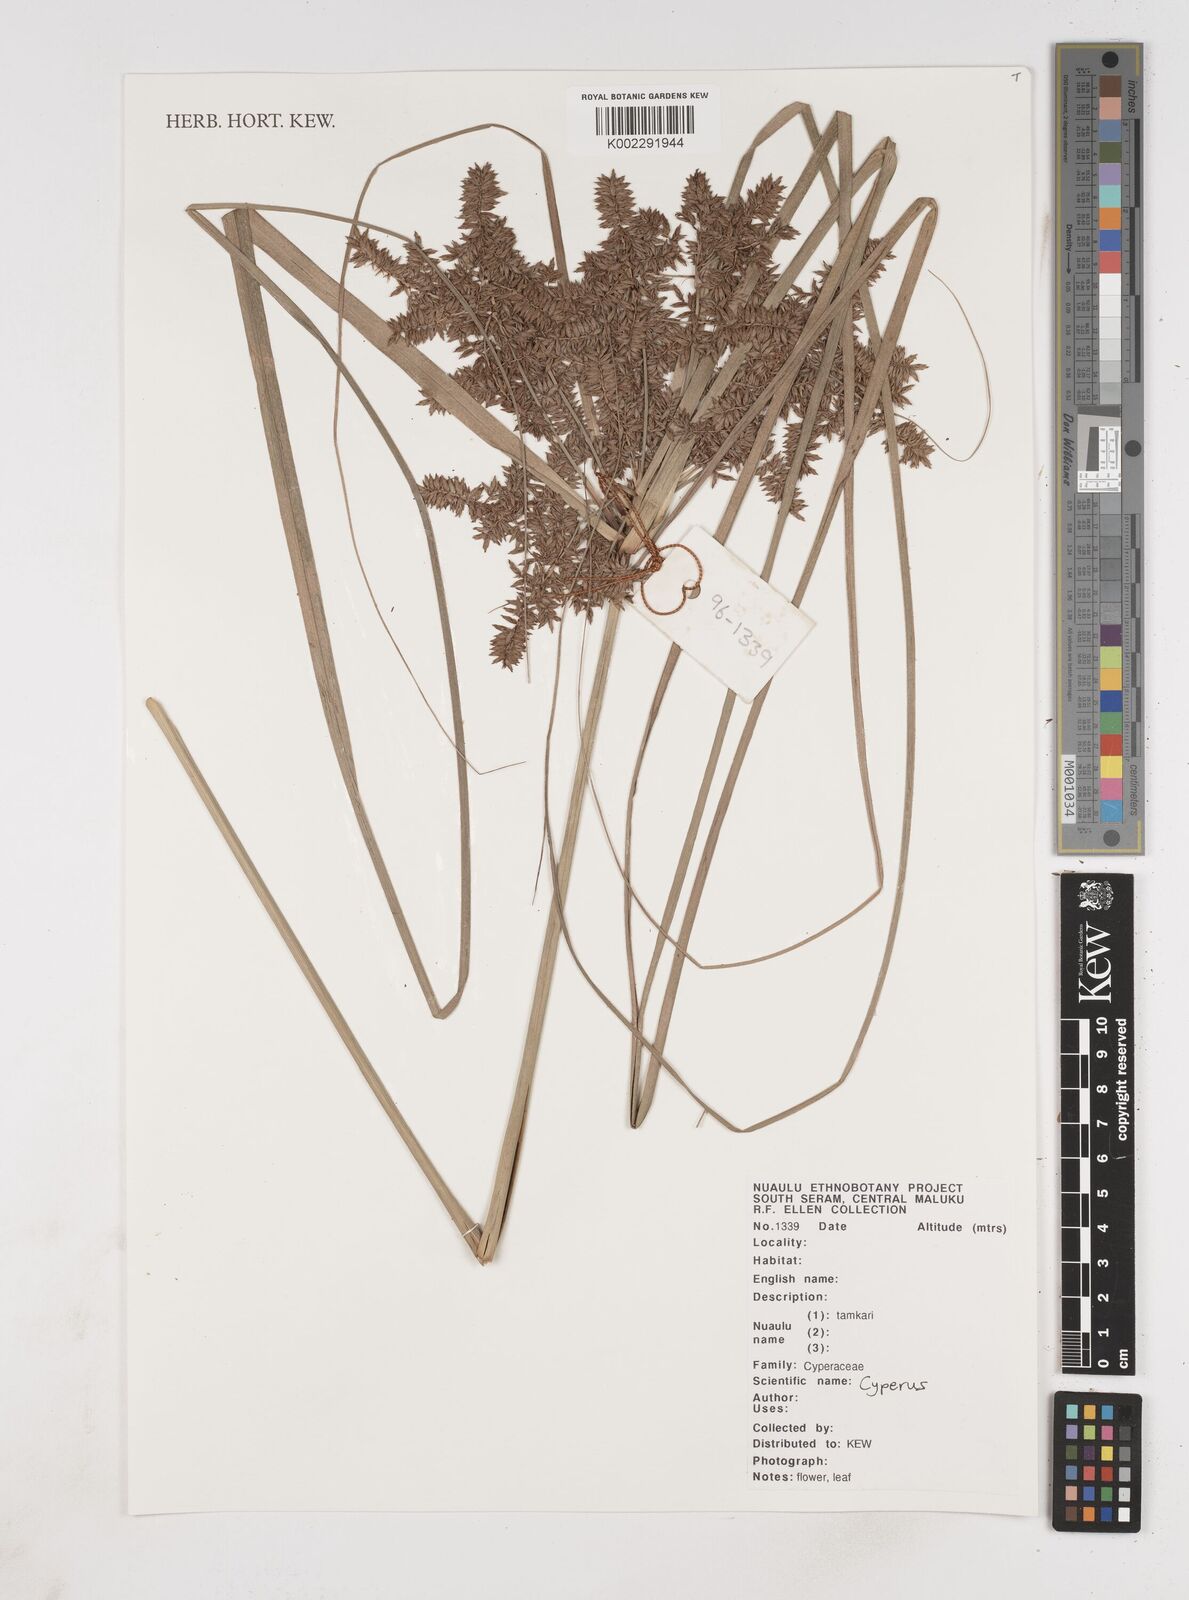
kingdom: Plantae
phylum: Tracheophyta
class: Liliopsida
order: Poales
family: Cyperaceae
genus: Cyperus
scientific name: Cyperus
